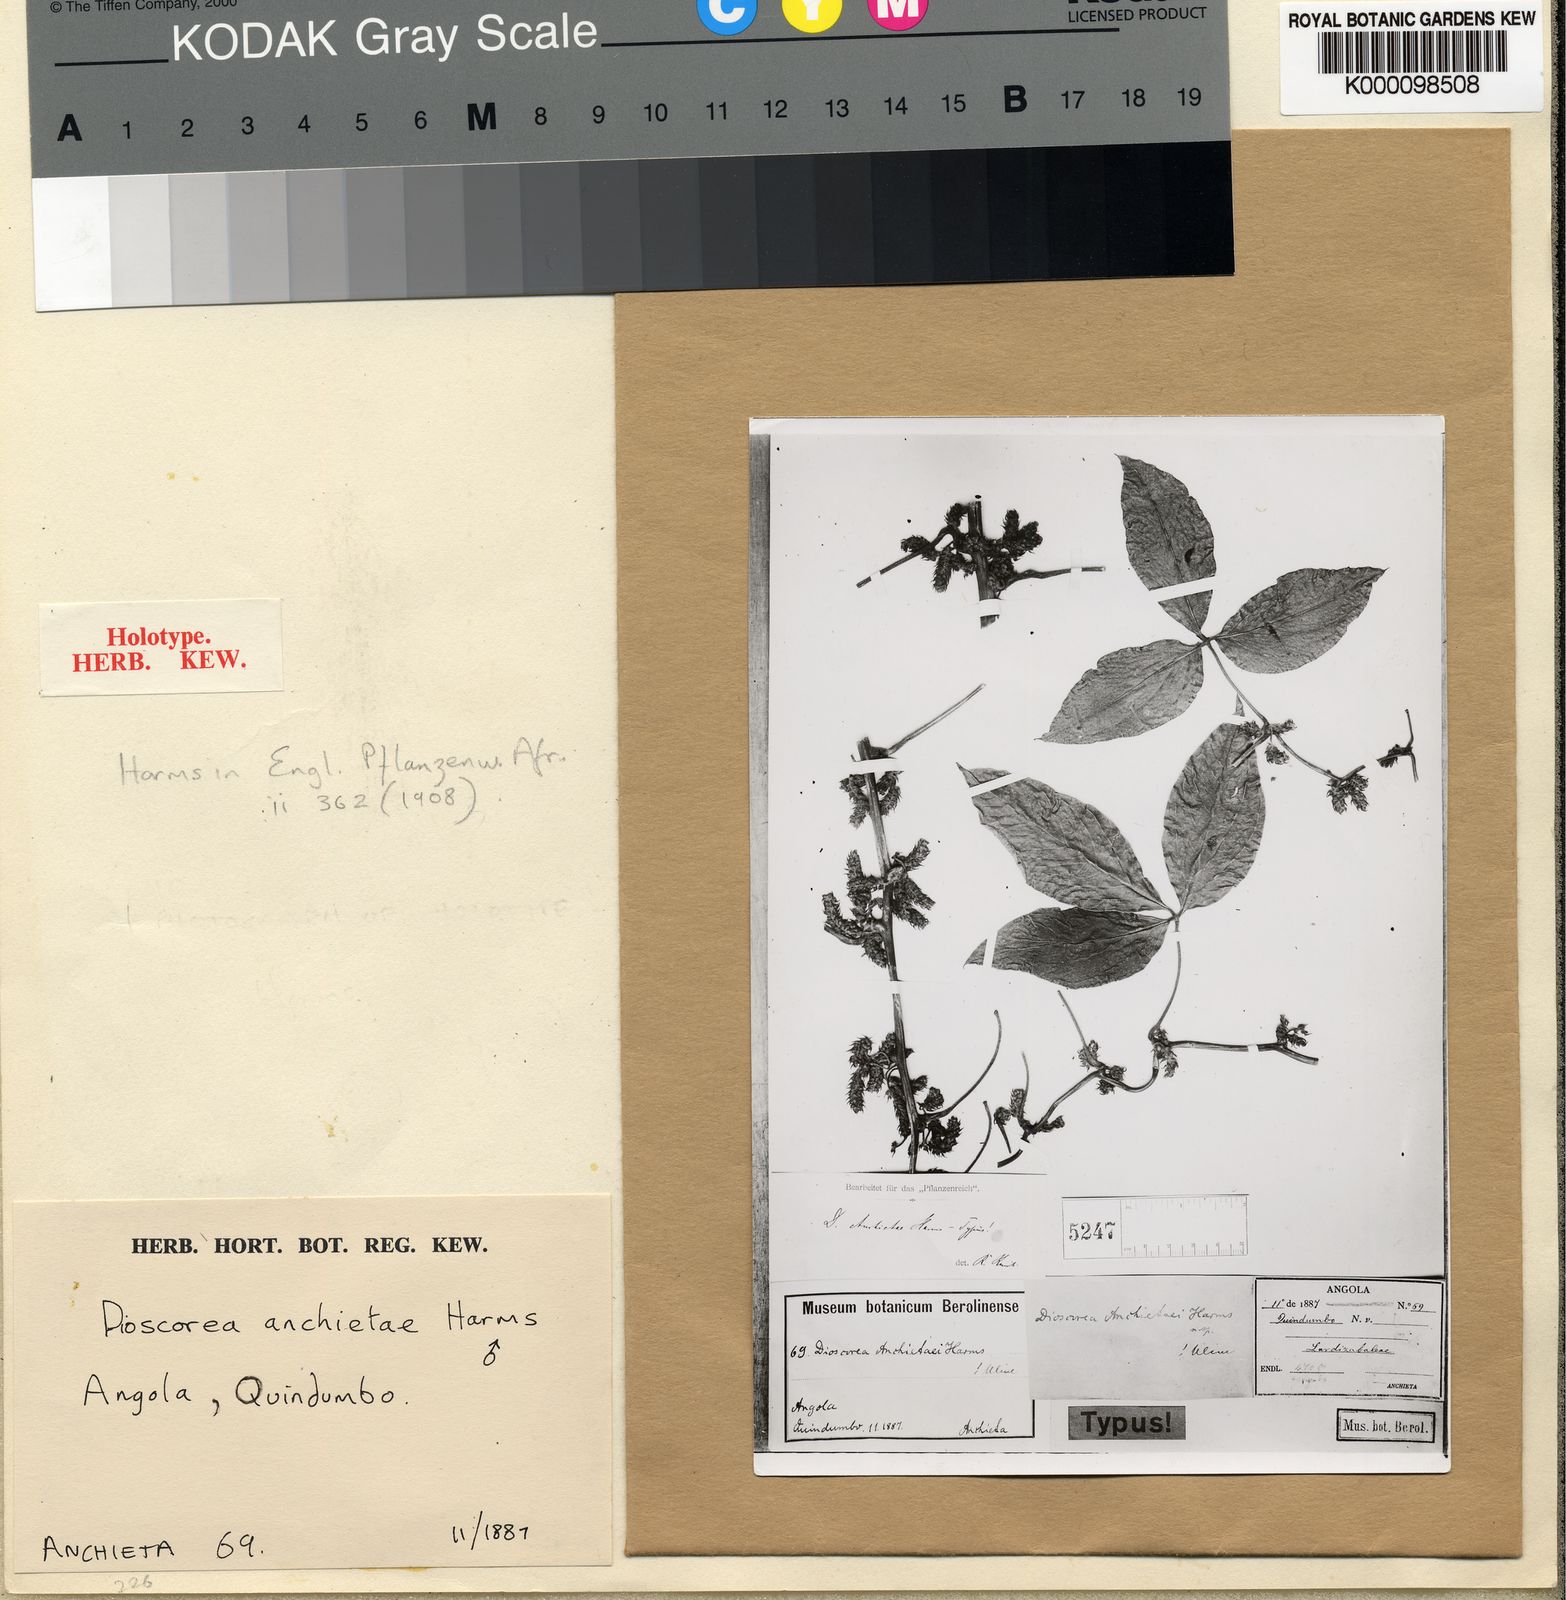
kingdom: Plantae
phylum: Tracheophyta
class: Liliopsida
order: Dioscoreales
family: Dioscoreaceae
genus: Dioscorea
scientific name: Dioscorea quartiniana
